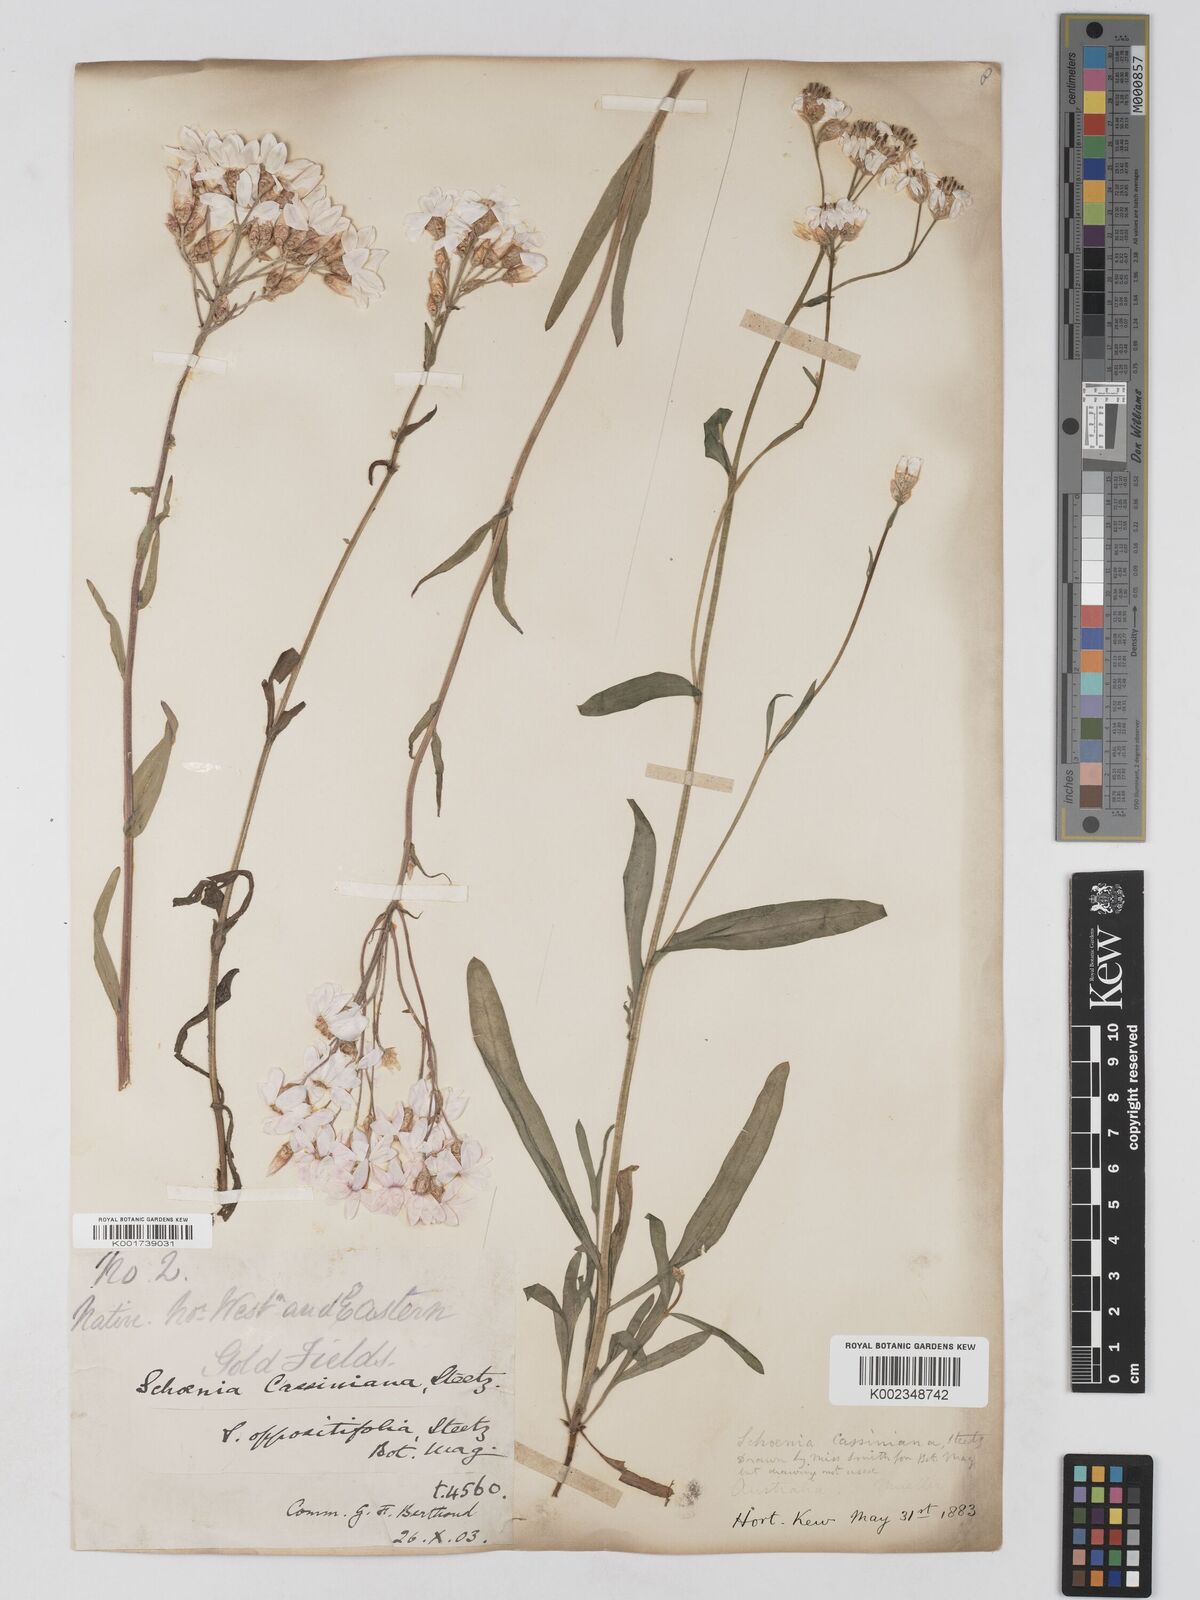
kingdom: Plantae
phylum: Tracheophyta
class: Magnoliopsida
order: Asterales
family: Asteraceae
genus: Schoenia
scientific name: Schoenia cassiniana
